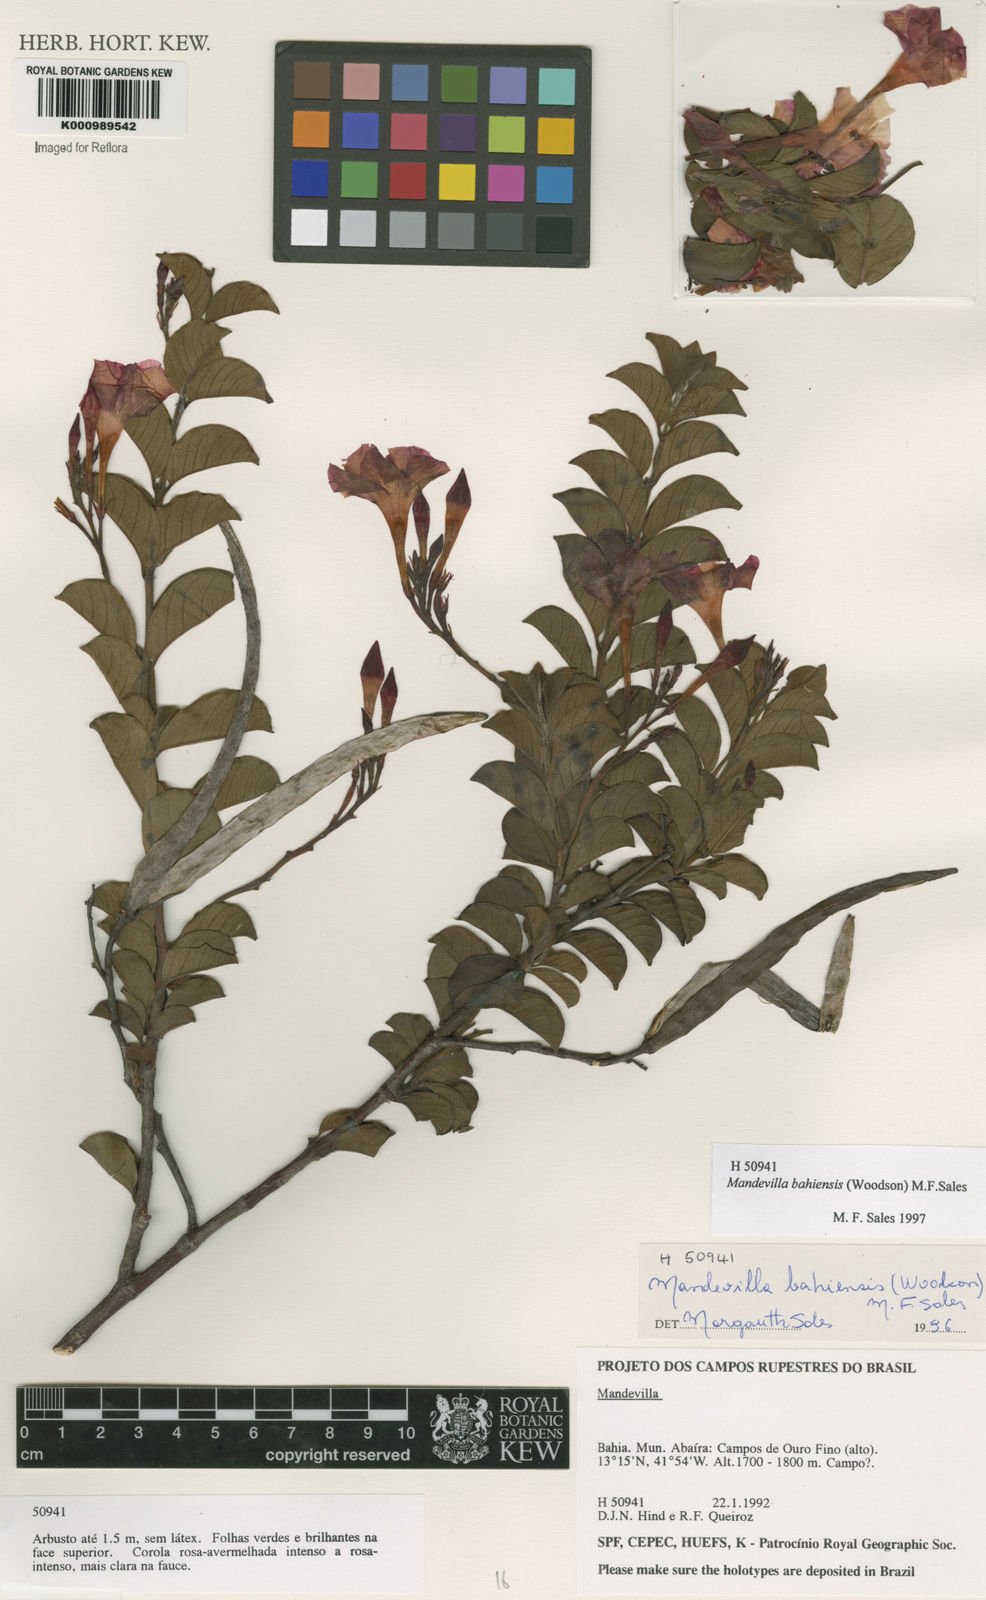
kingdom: Plantae
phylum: Tracheophyta
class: Magnoliopsida
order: Gentianales
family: Apocynaceae
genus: Mandevilla
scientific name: Mandevilla bahiensis
